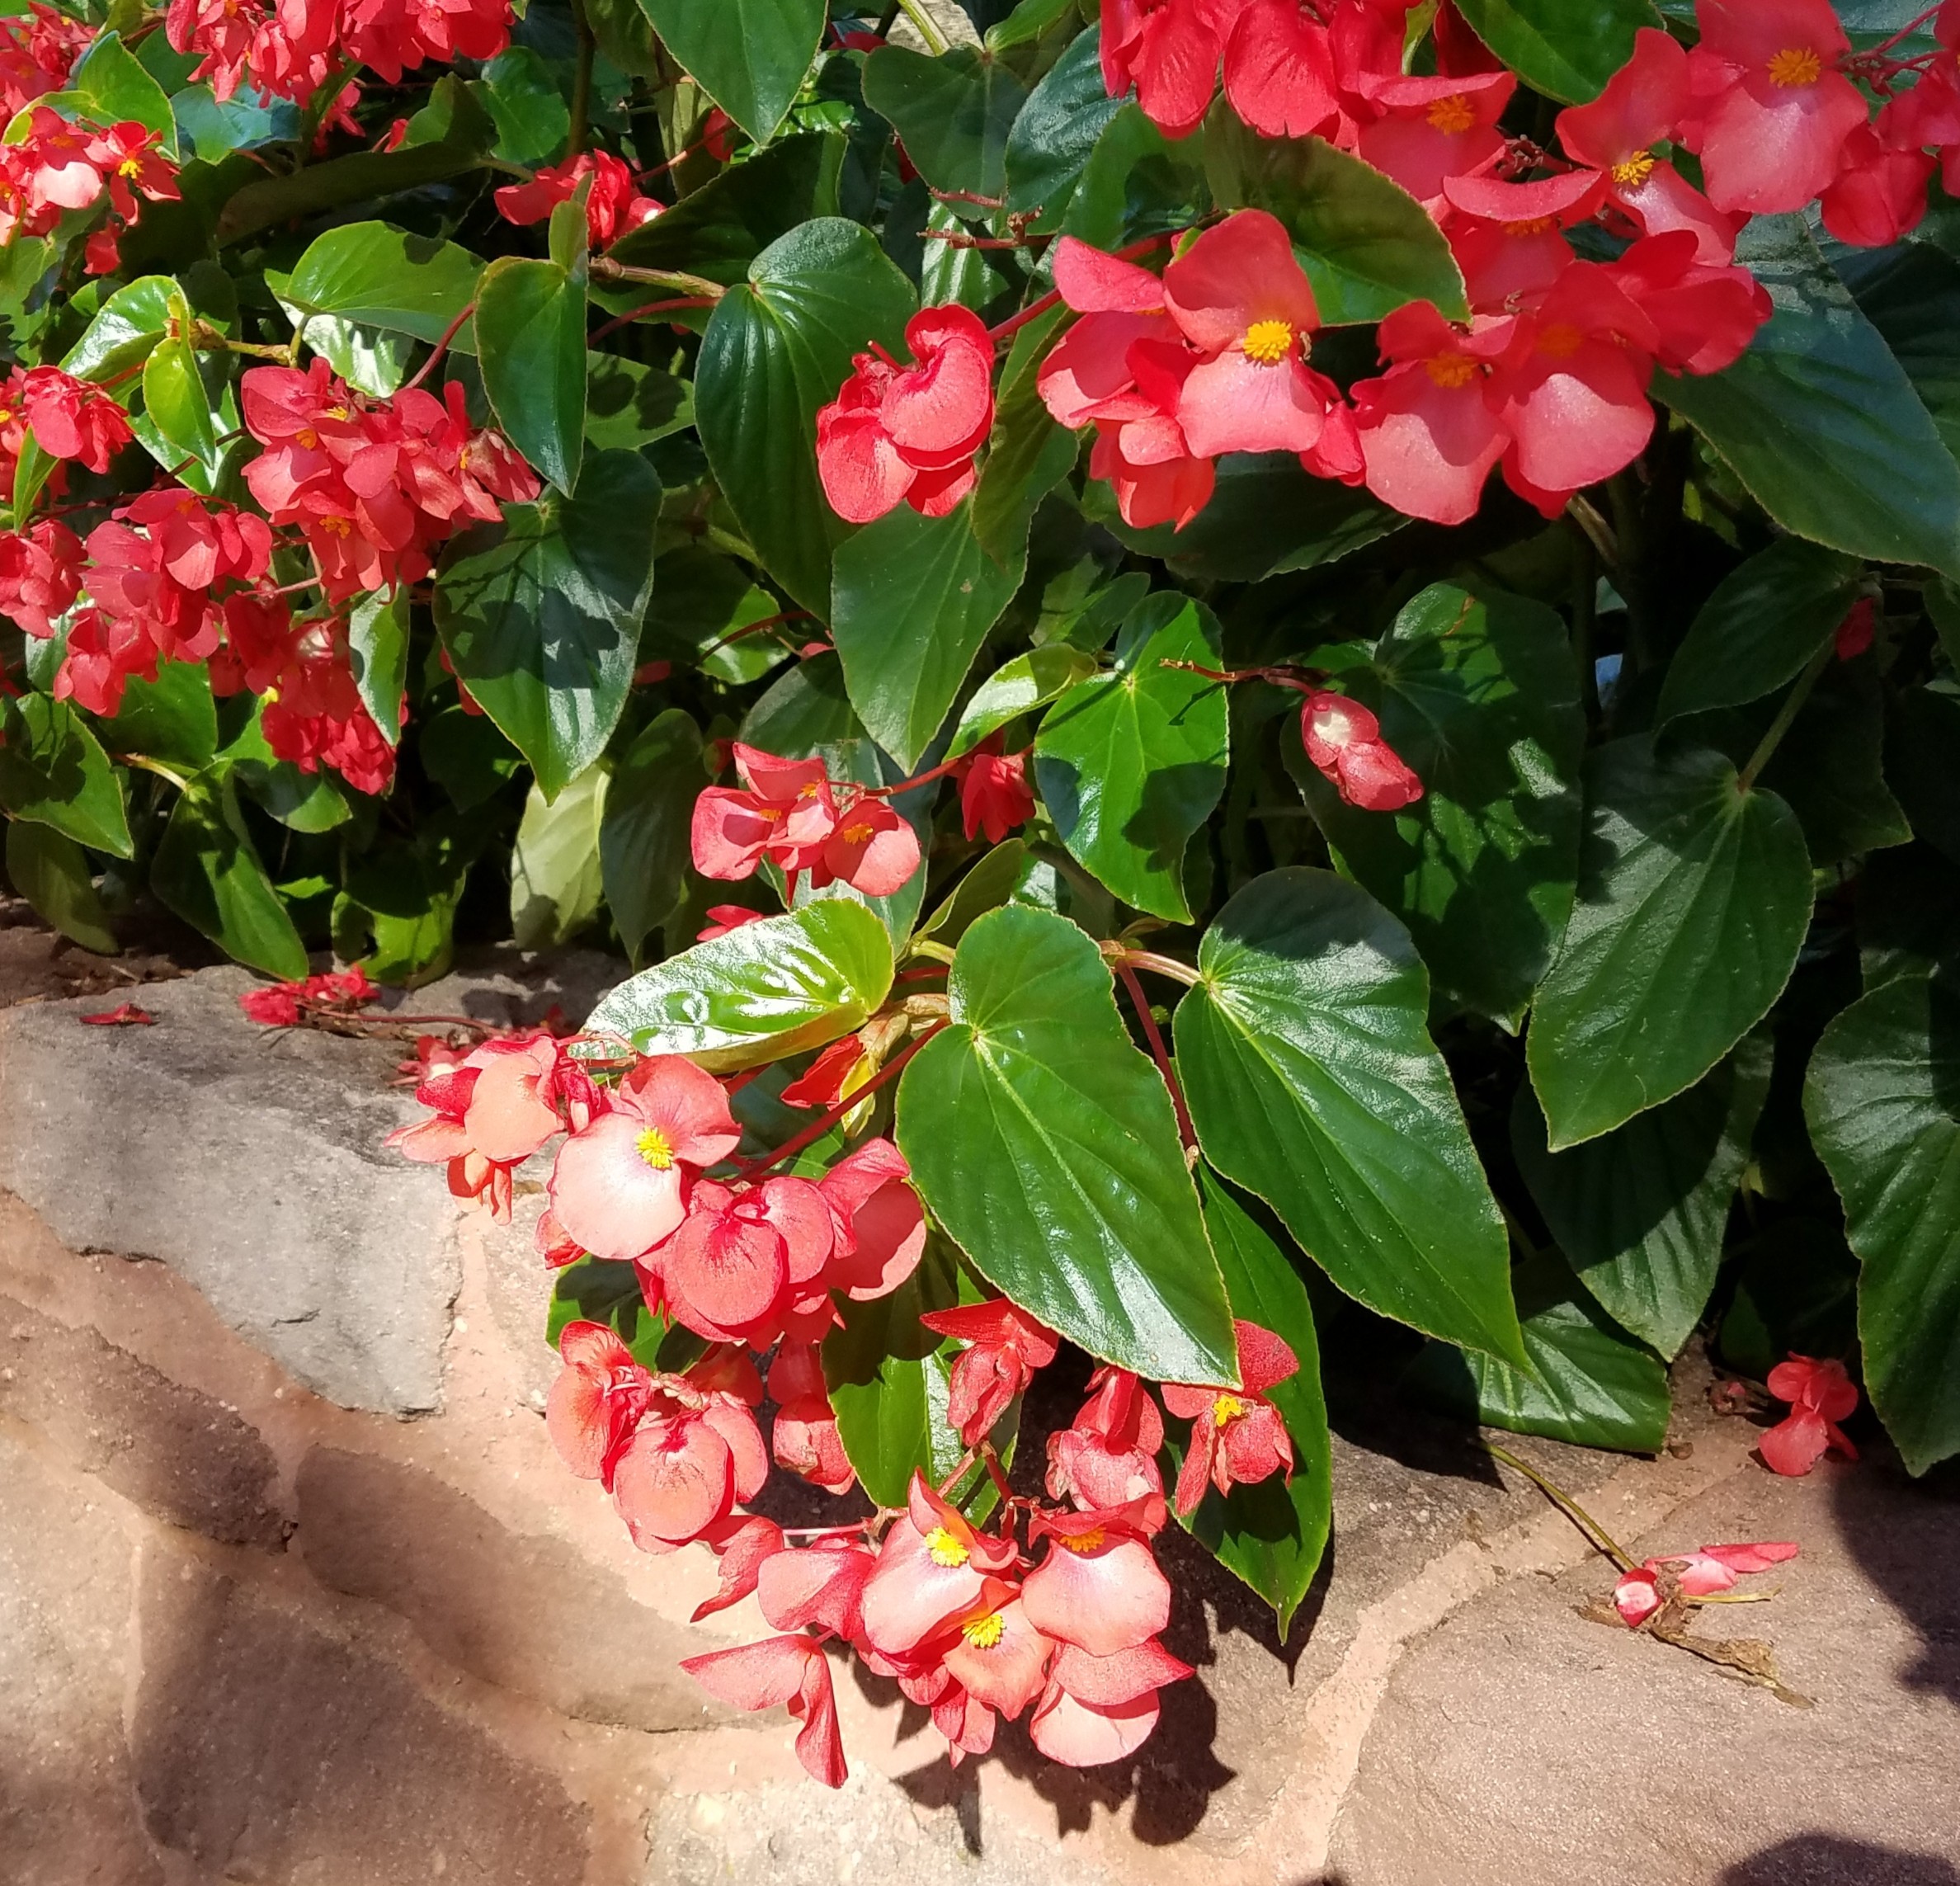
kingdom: Plantae
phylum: Tracheophyta
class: Magnoliopsida
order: Cucurbitales
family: Begoniaceae
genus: Begonia
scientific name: Begonia semperflorens
